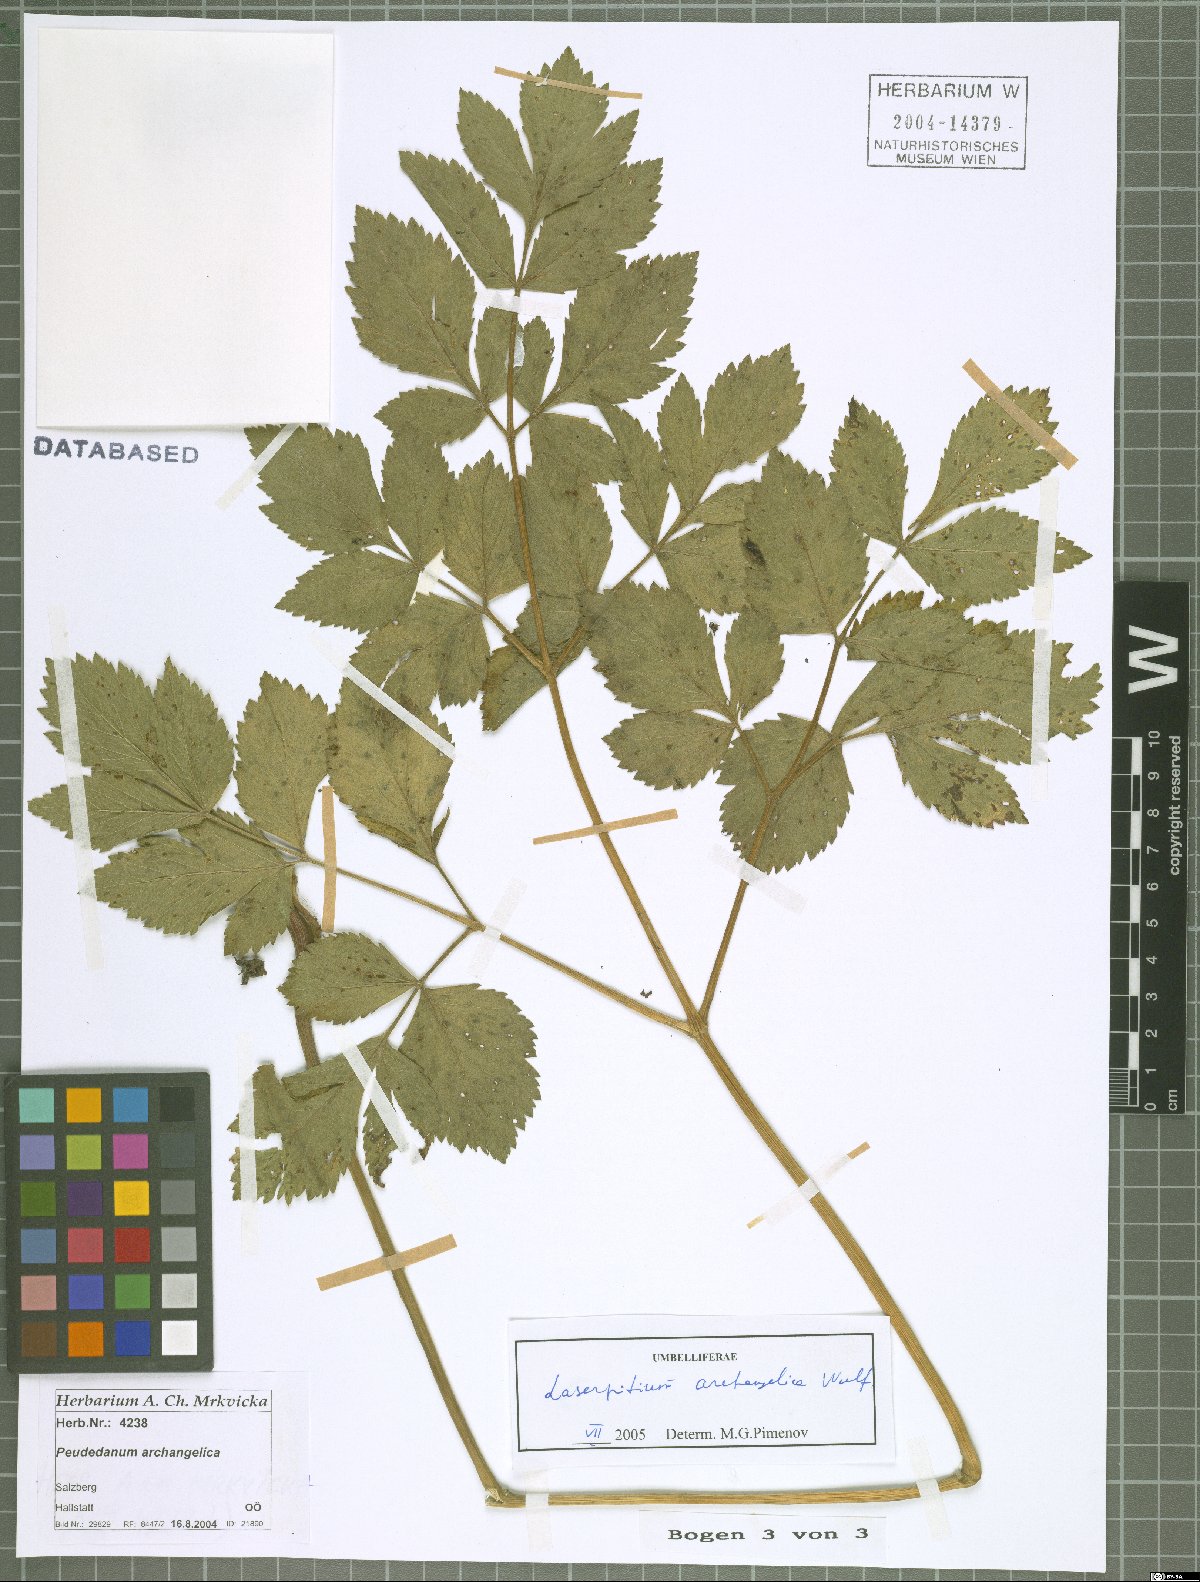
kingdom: Plantae
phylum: Tracheophyta
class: Magnoliopsida
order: Apiales
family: Apiaceae
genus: Laser
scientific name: Laser archangelica
